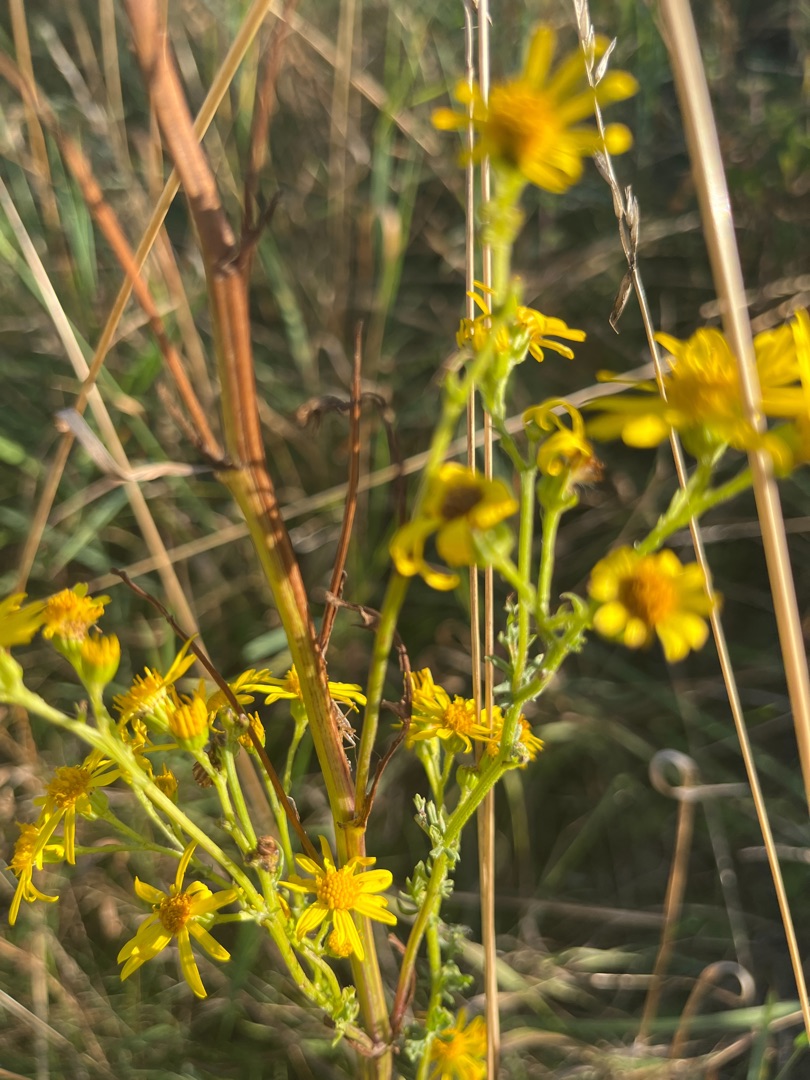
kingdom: Plantae
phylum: Tracheophyta
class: Magnoliopsida
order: Asterales
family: Asteraceae
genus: Jacobaea
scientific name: Jacobaea vulgaris
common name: Eng-brandbæger
